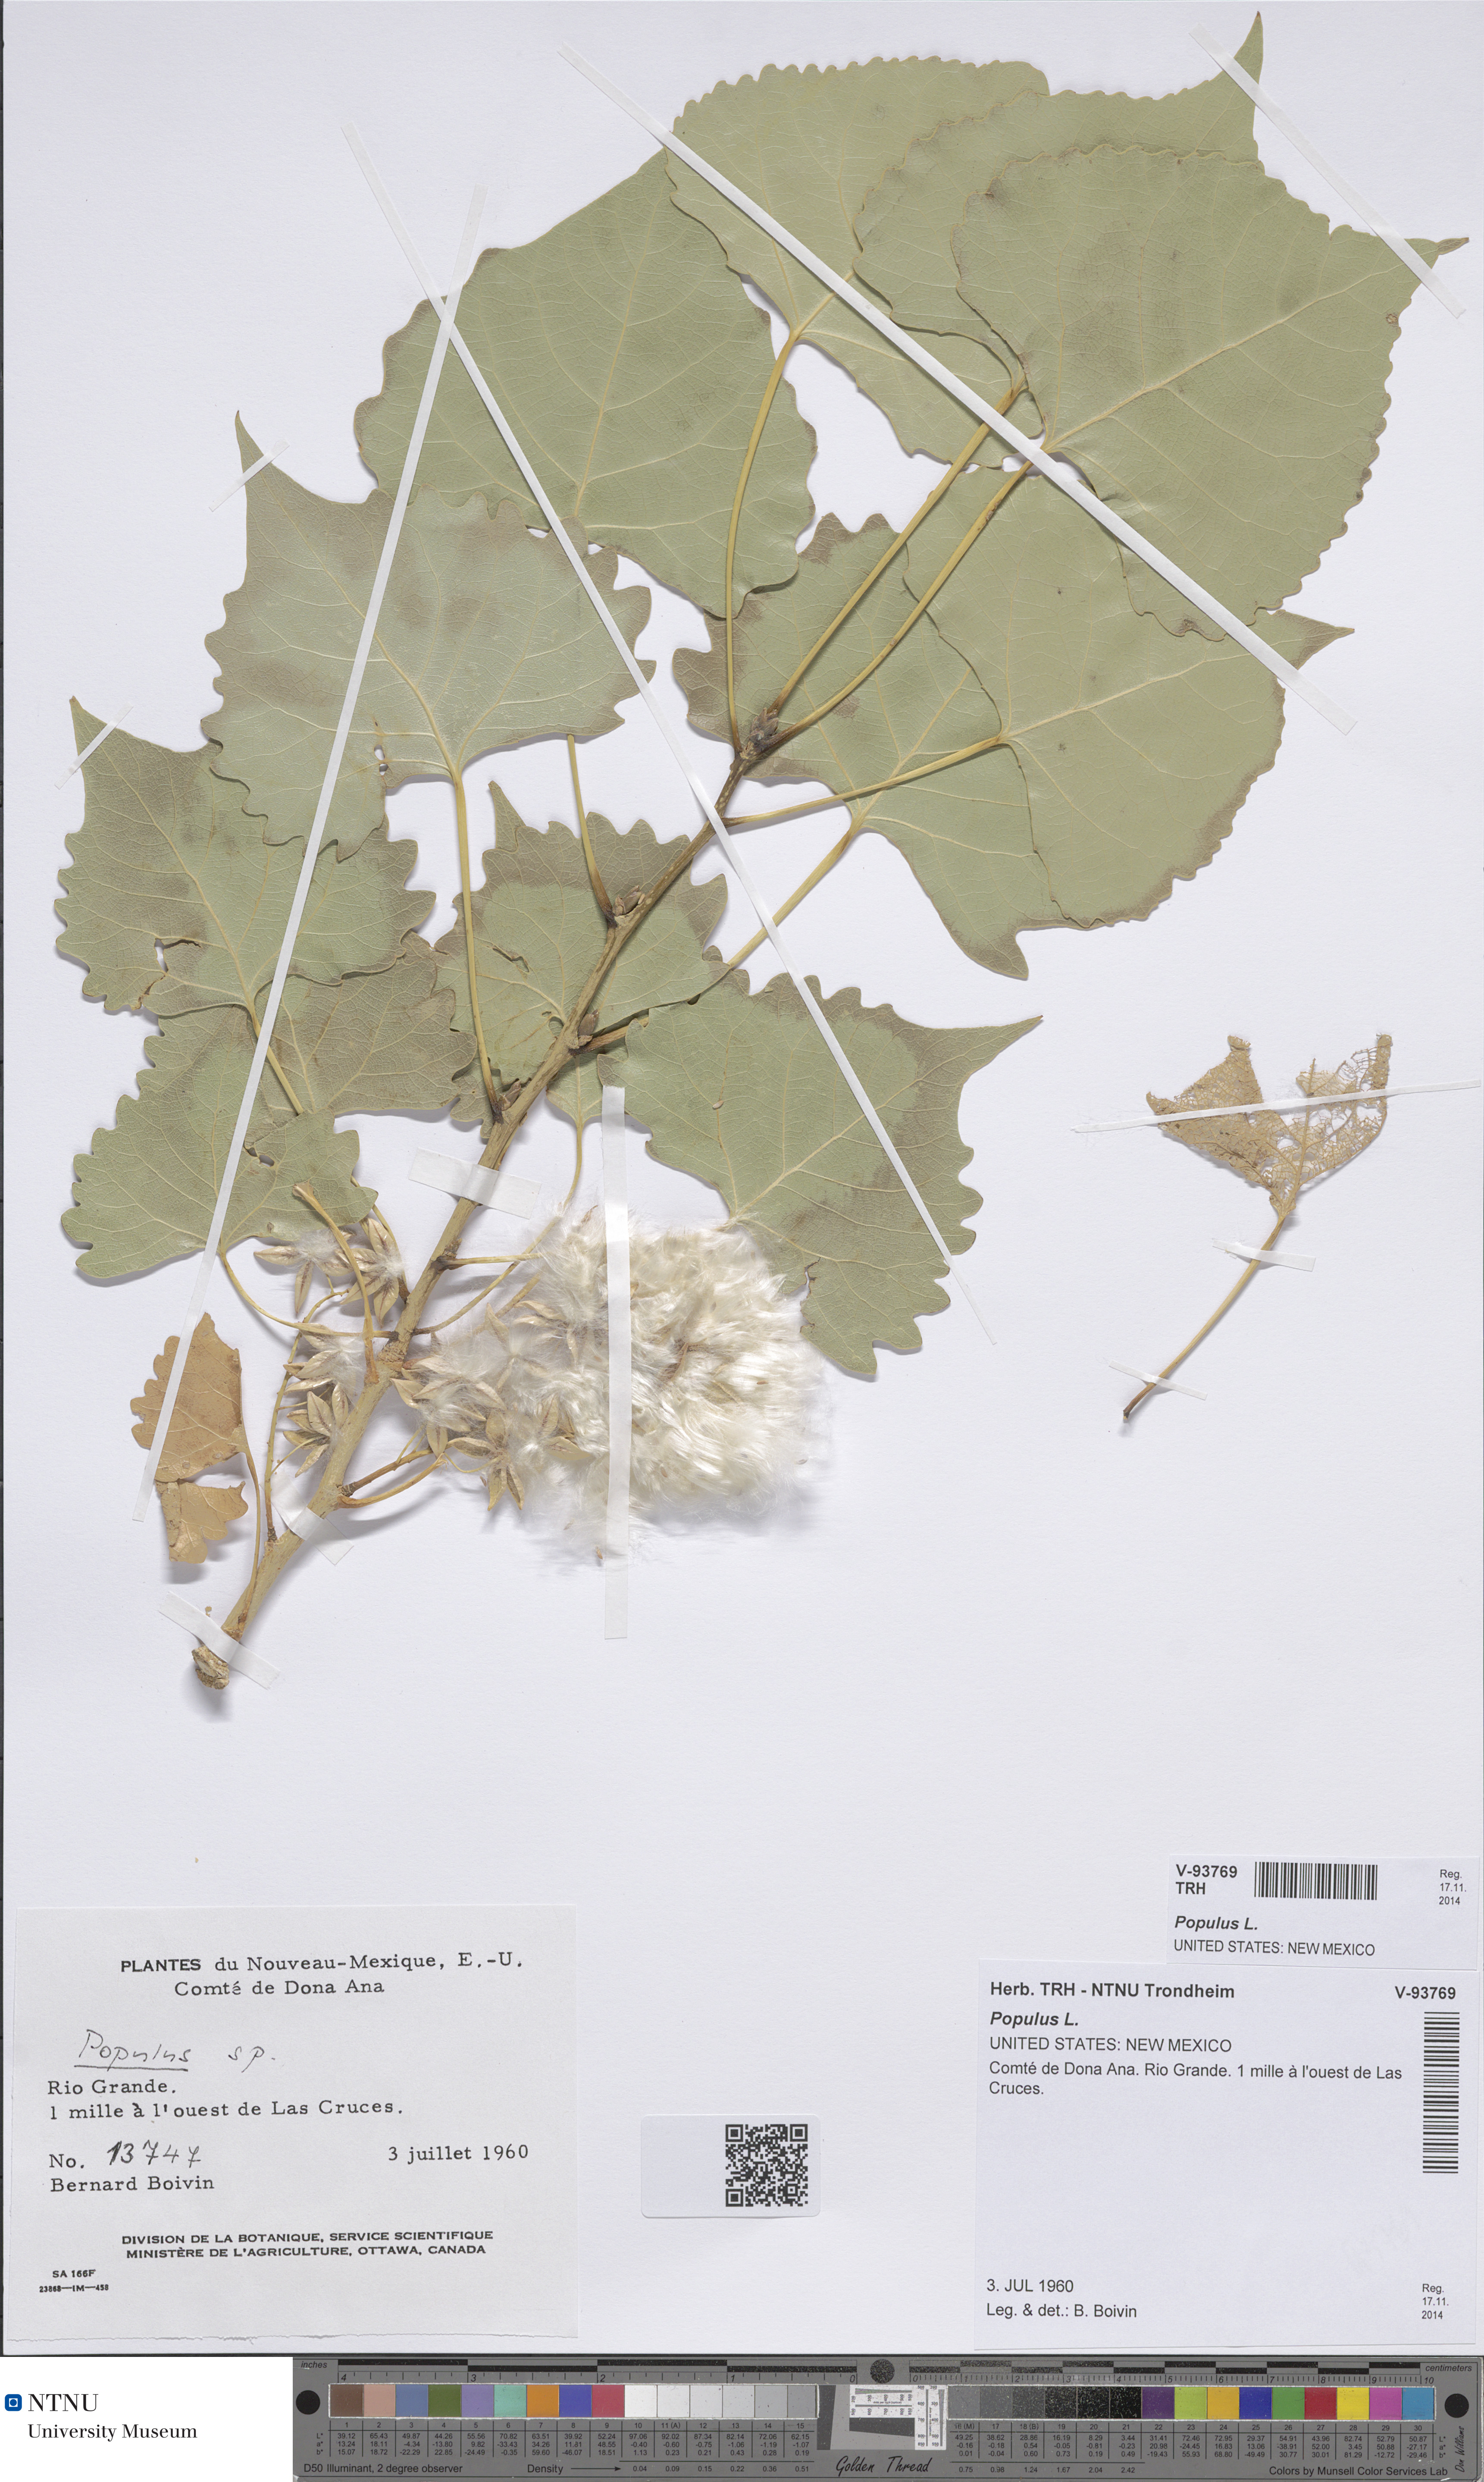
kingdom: Plantae
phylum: Tracheophyta
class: Magnoliopsida
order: Malpighiales
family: Salicaceae
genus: Populus
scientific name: Populus
